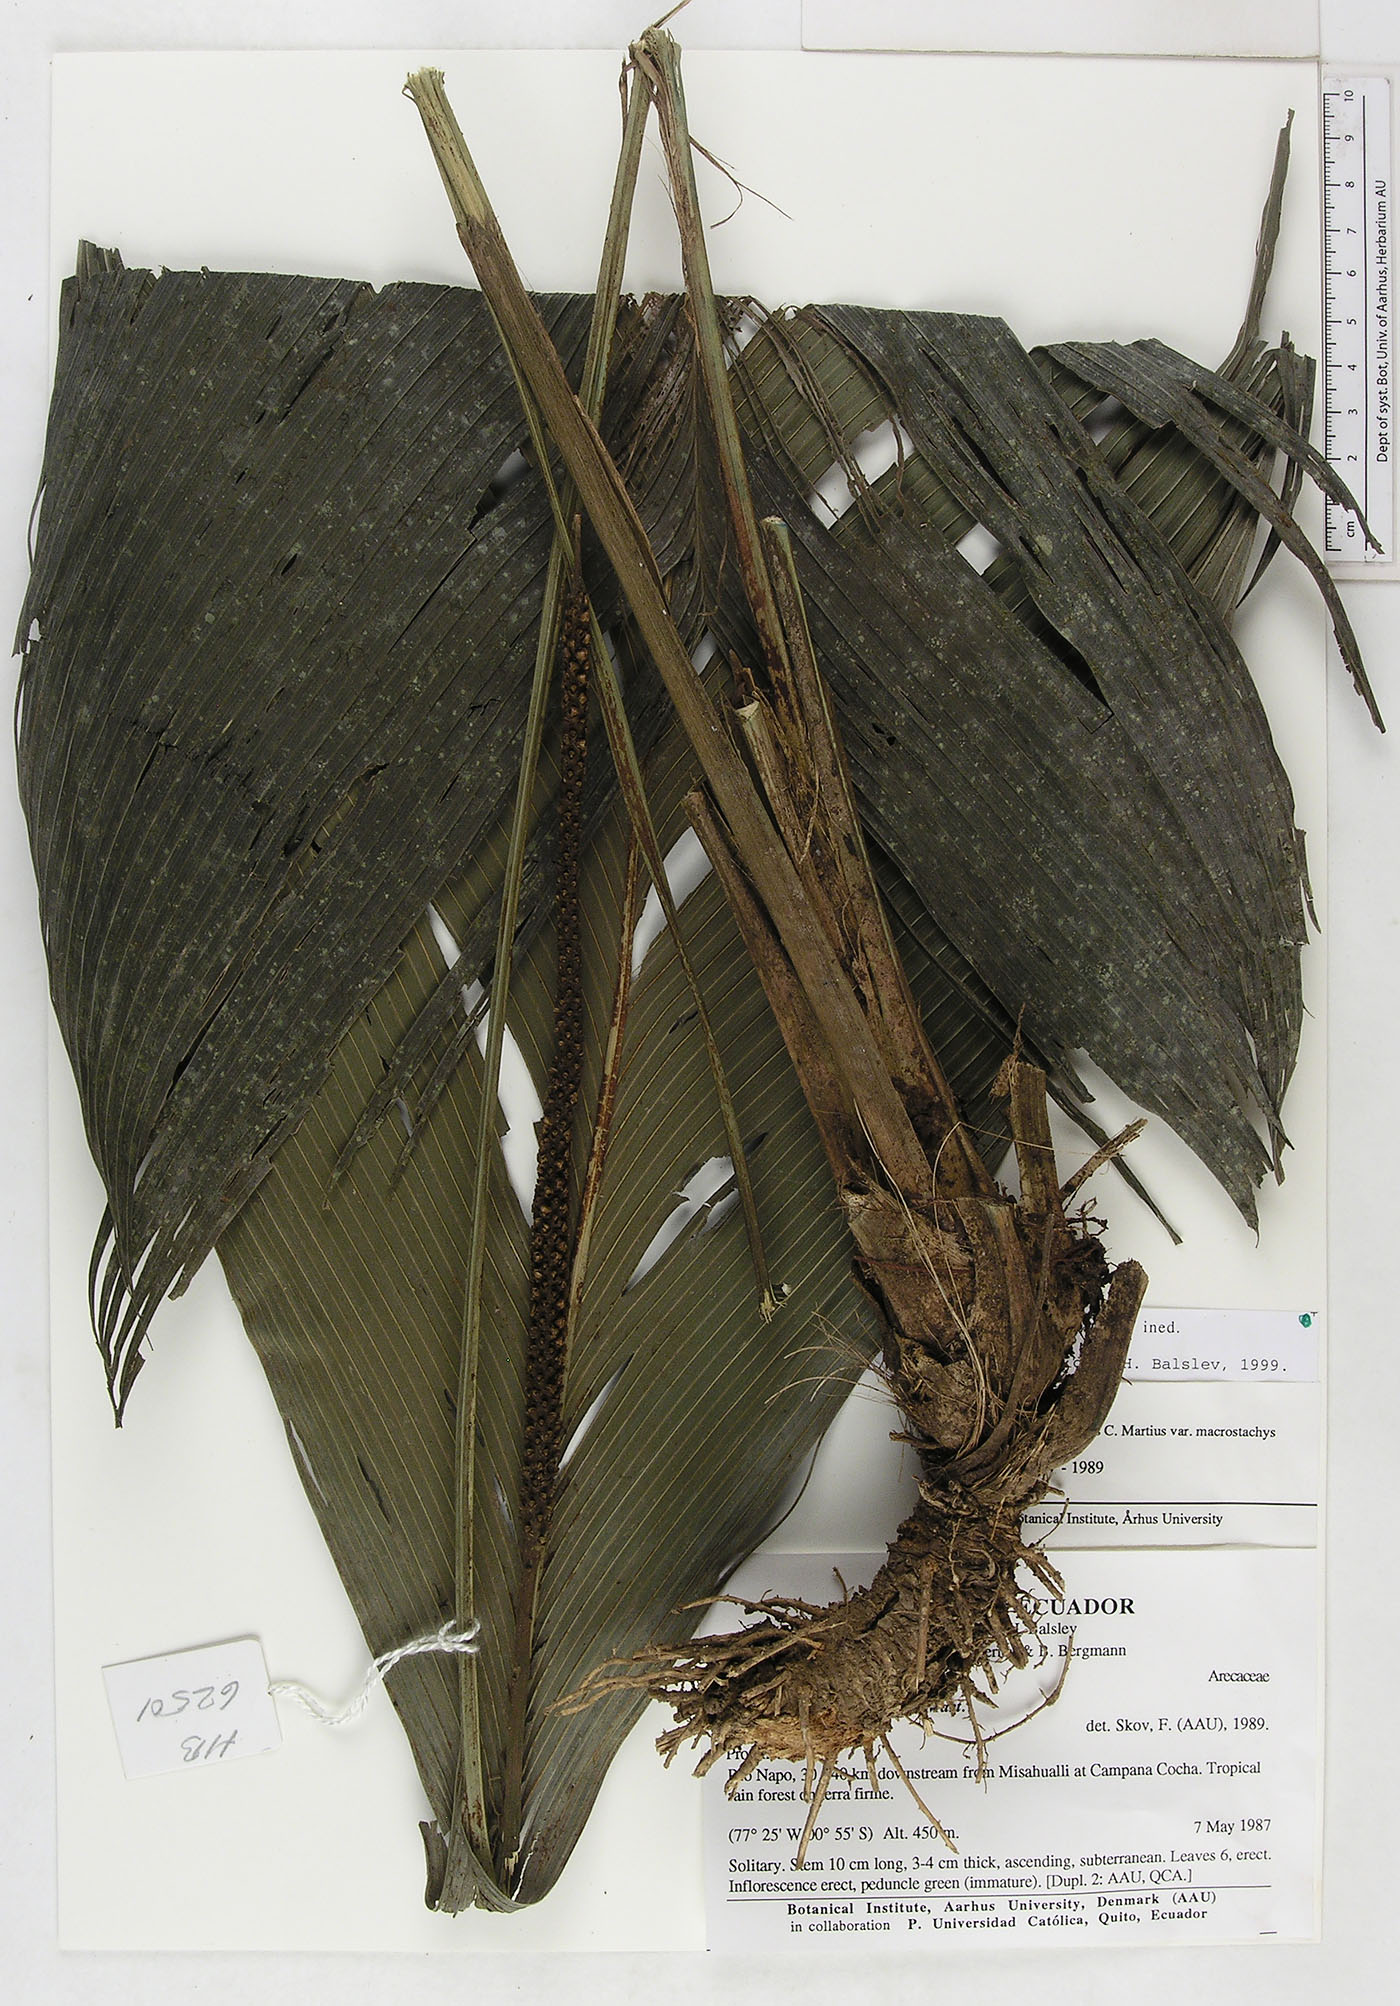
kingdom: Plantae
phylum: Tracheophyta
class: Liliopsida
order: Arecales
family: Arecaceae
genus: Geonoma
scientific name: Geonoma macrostachys
